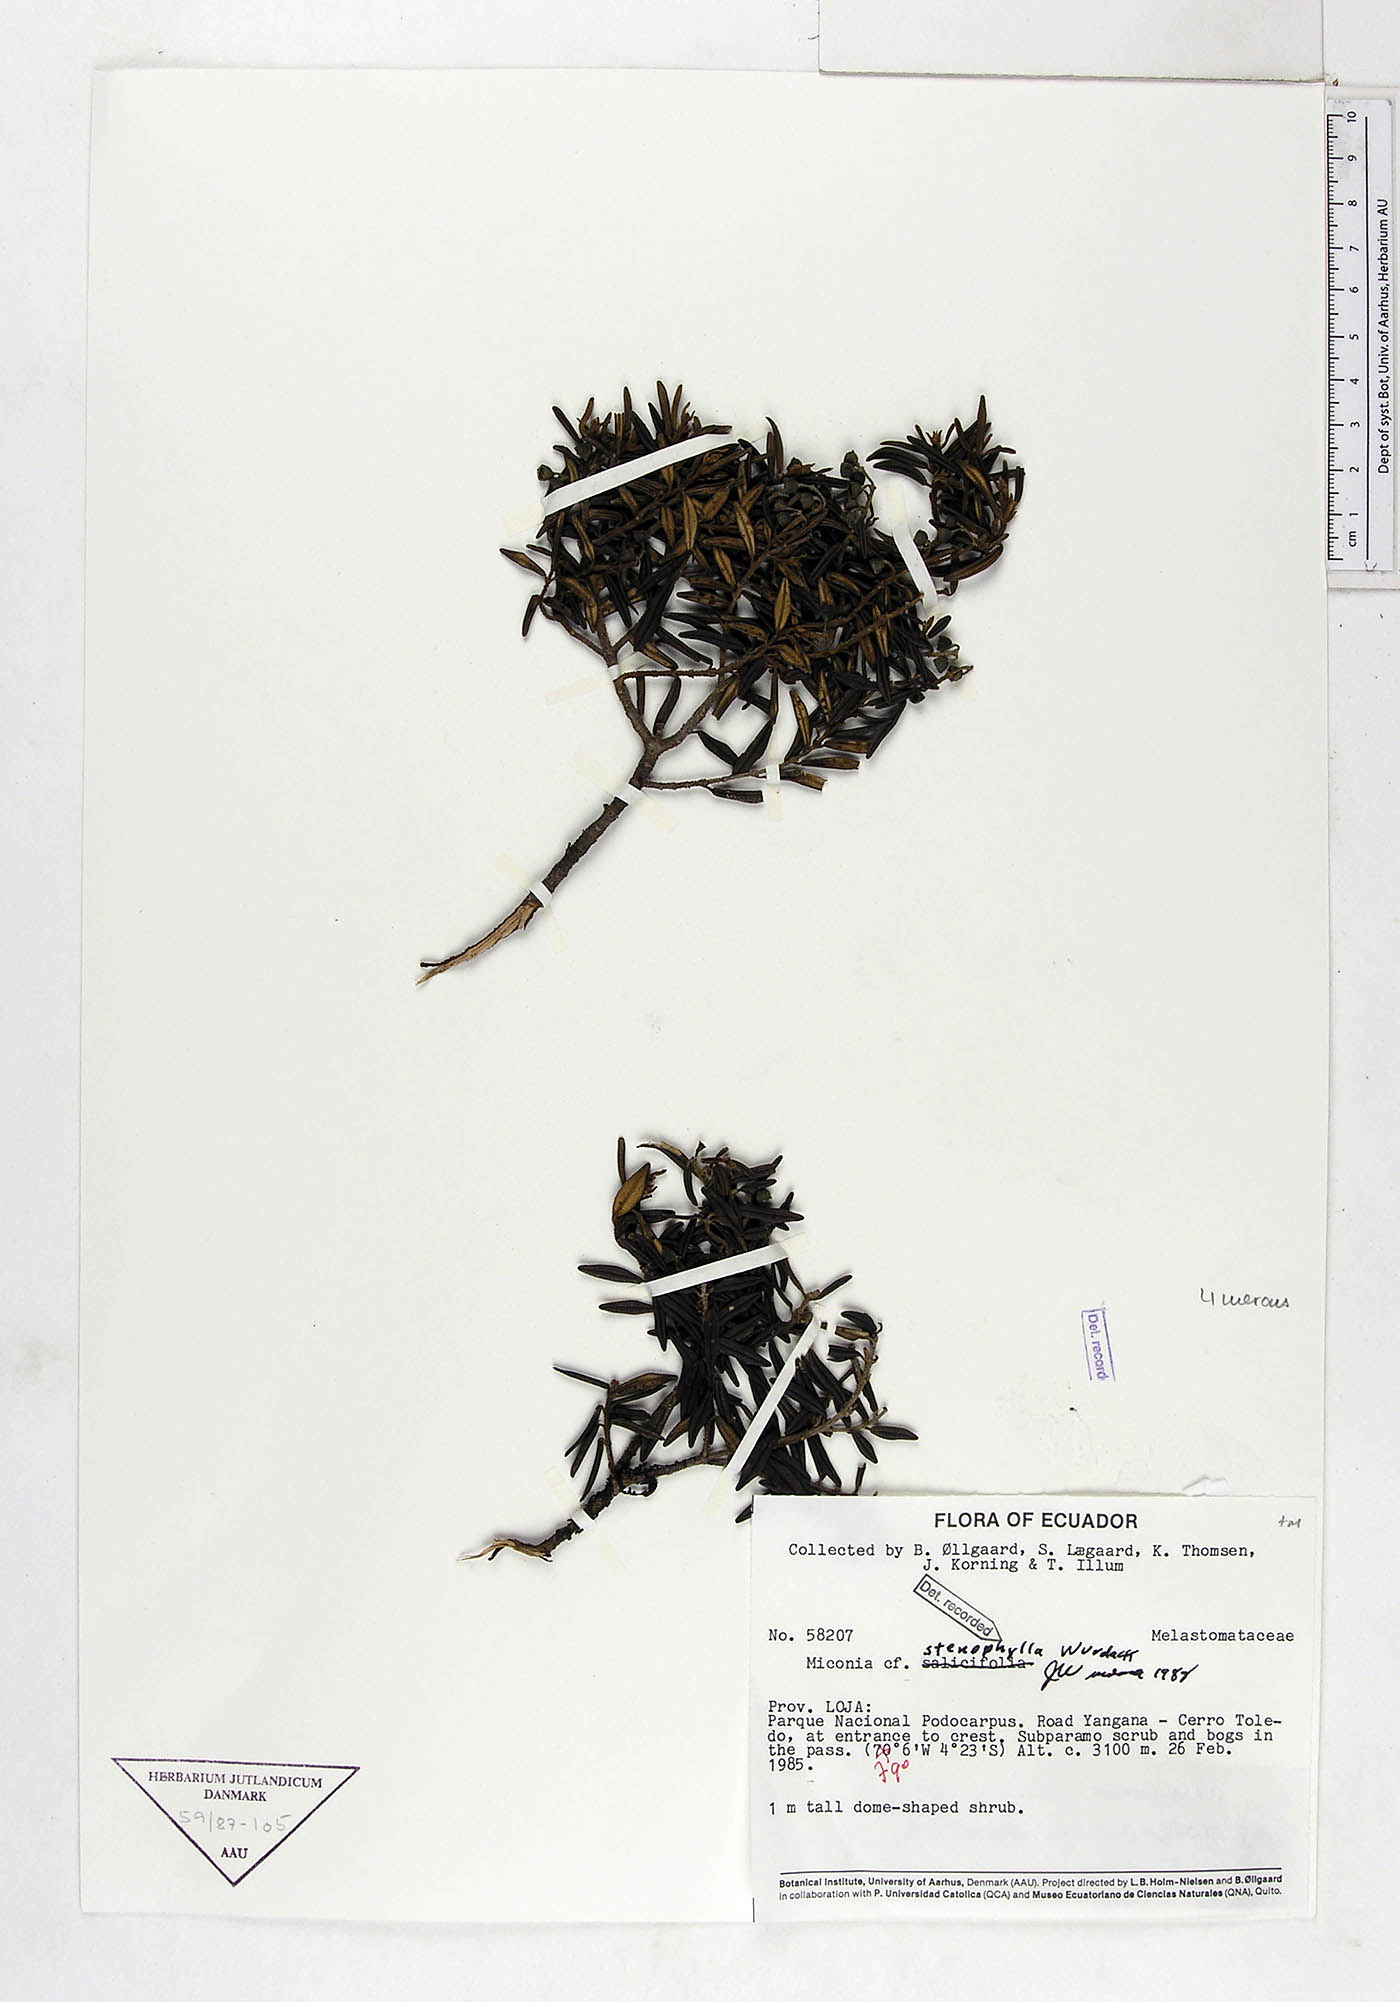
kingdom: Plantae
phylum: Tracheophyta
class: Magnoliopsida
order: Myrtales
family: Melastomataceae
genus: Miconia
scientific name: Miconia stenophylla
